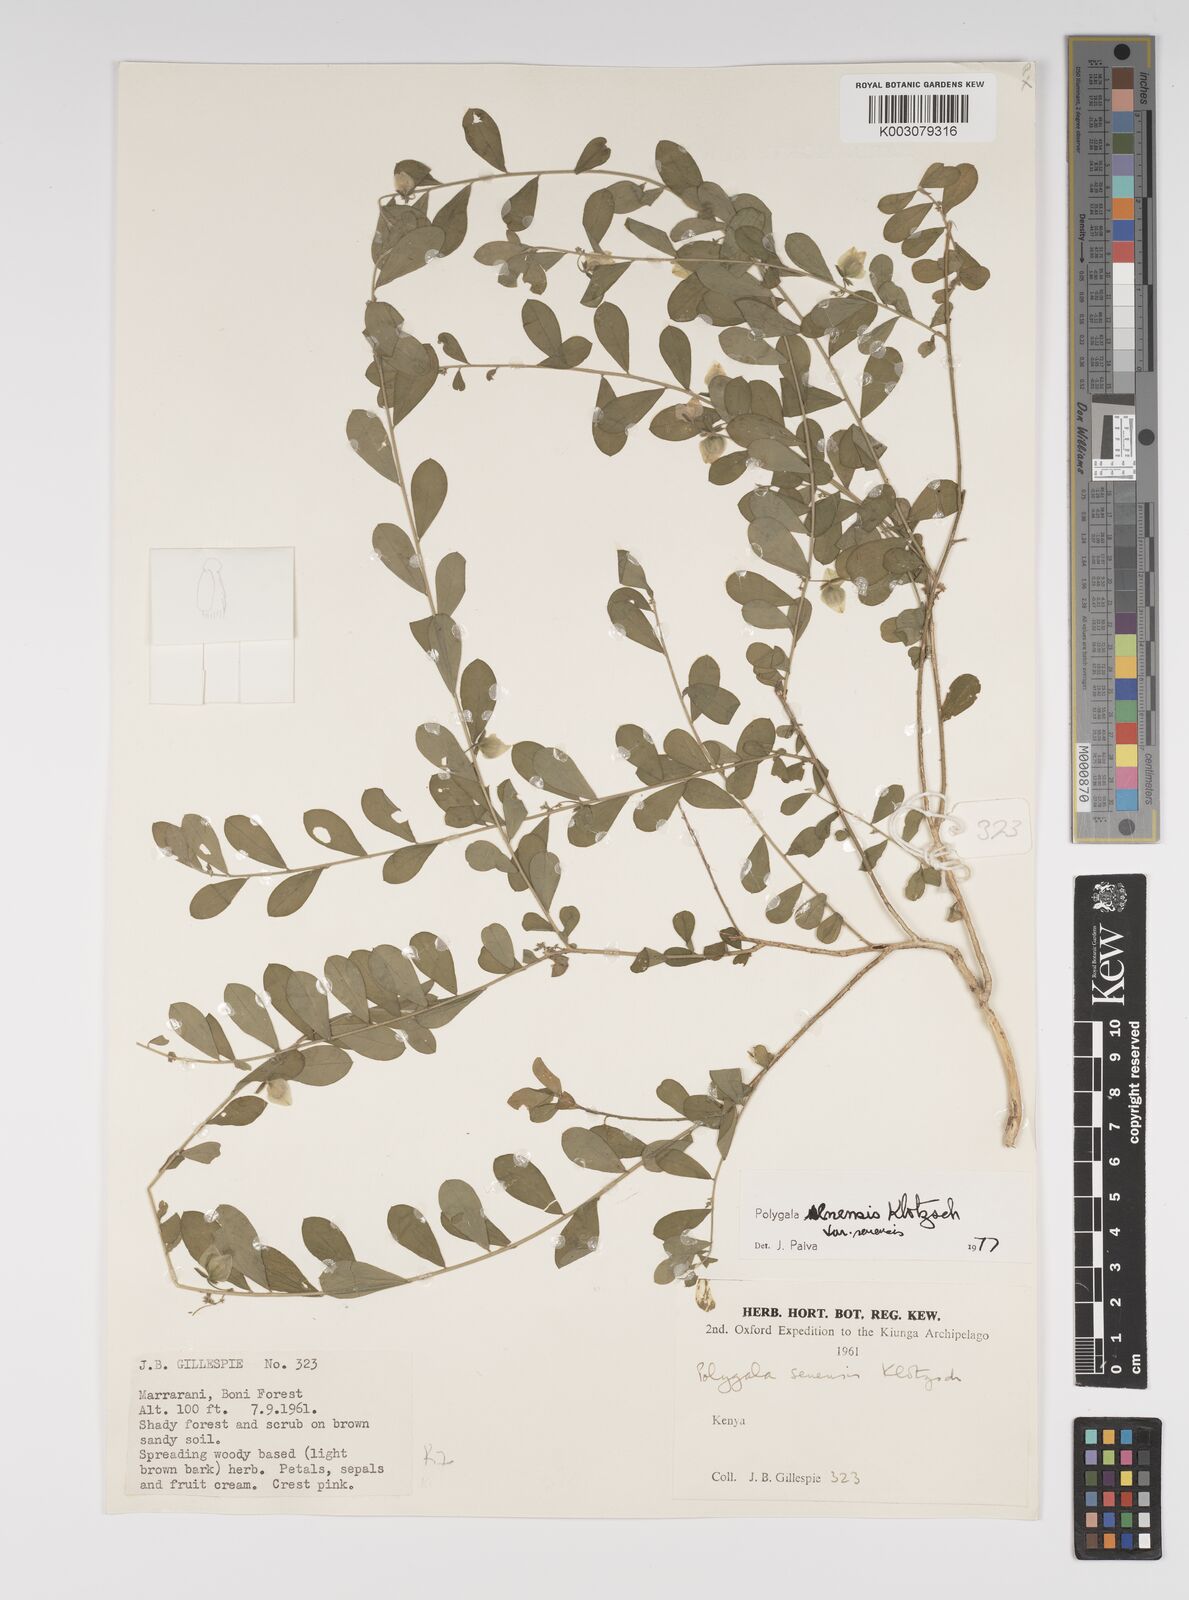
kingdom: Plantae
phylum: Tracheophyta
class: Magnoliopsida
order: Fabales
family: Polygalaceae
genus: Polygala
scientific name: Polygala senensis
